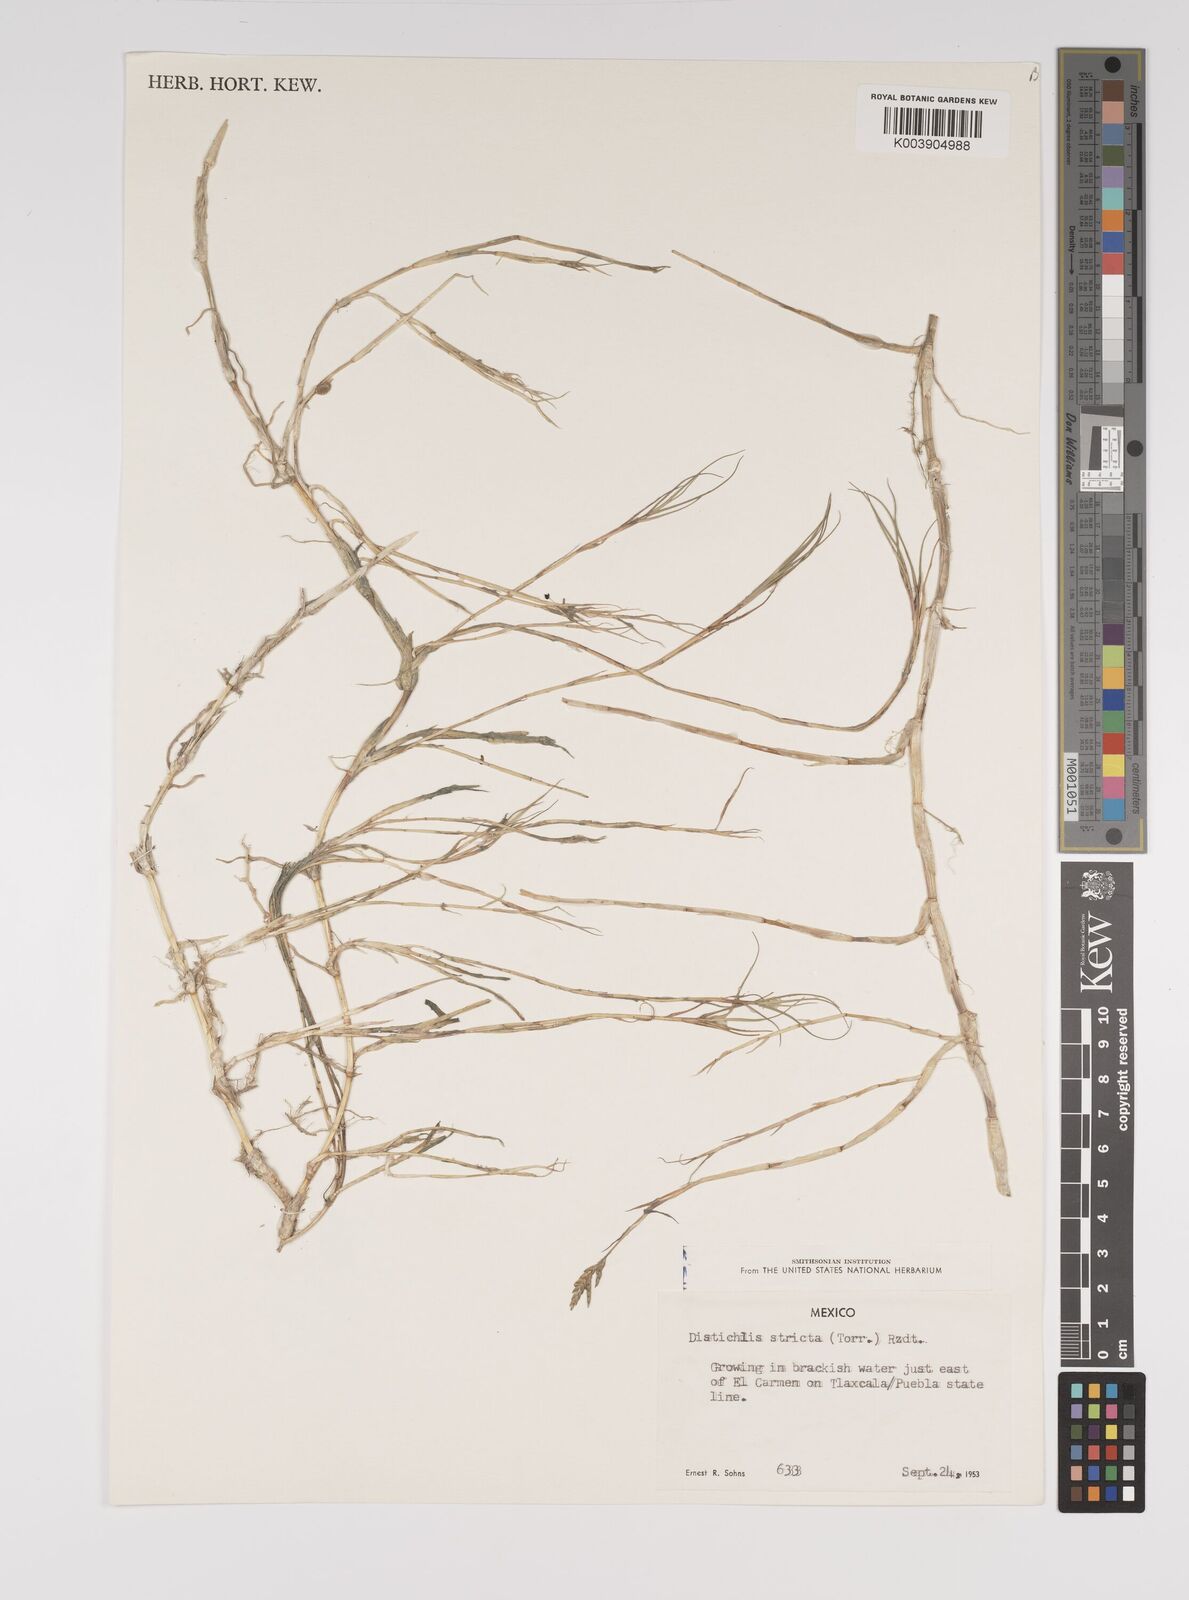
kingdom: Plantae
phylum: Tracheophyta
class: Liliopsida
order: Poales
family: Poaceae
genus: Distichlis
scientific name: Distichlis spicata
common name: Saltgrass
